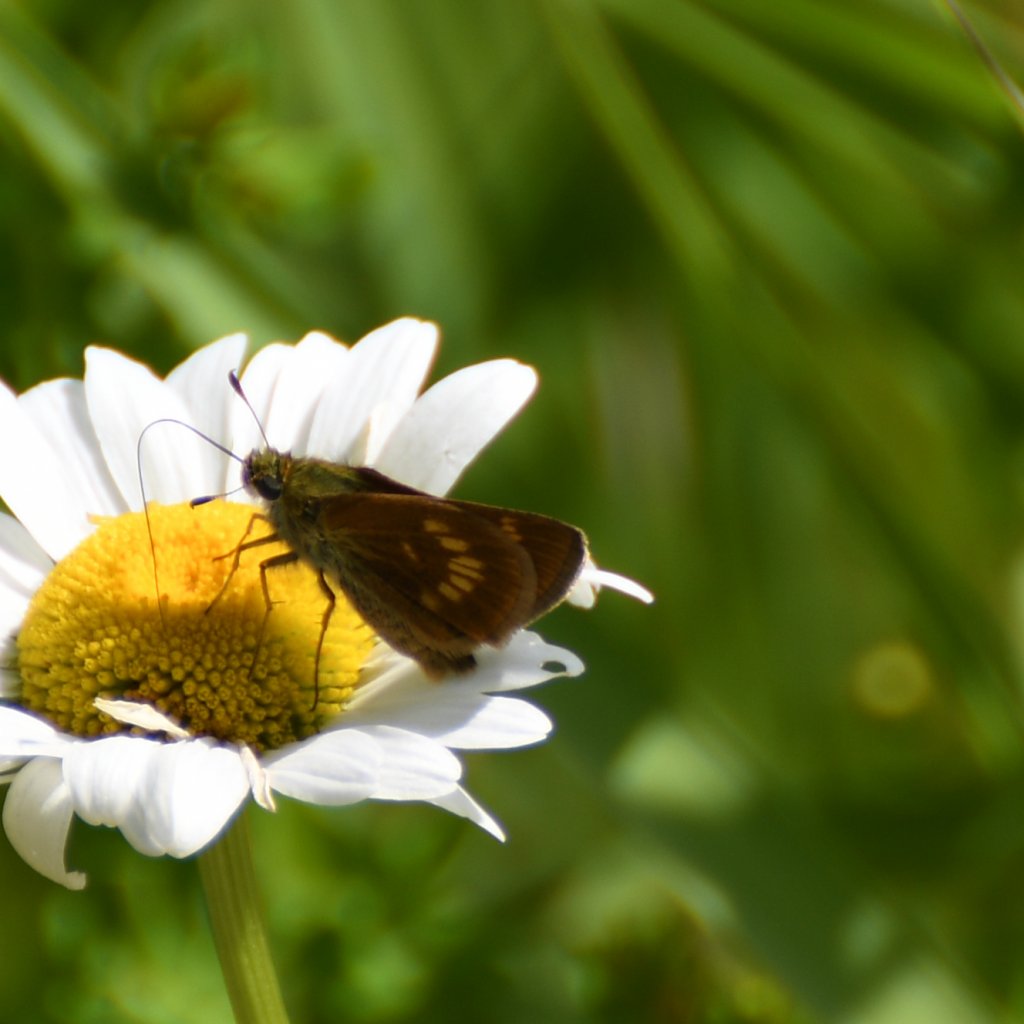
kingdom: Animalia
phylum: Arthropoda
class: Insecta
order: Lepidoptera
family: Hesperiidae
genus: Polites
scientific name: Polites
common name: Long Dash Skipper
